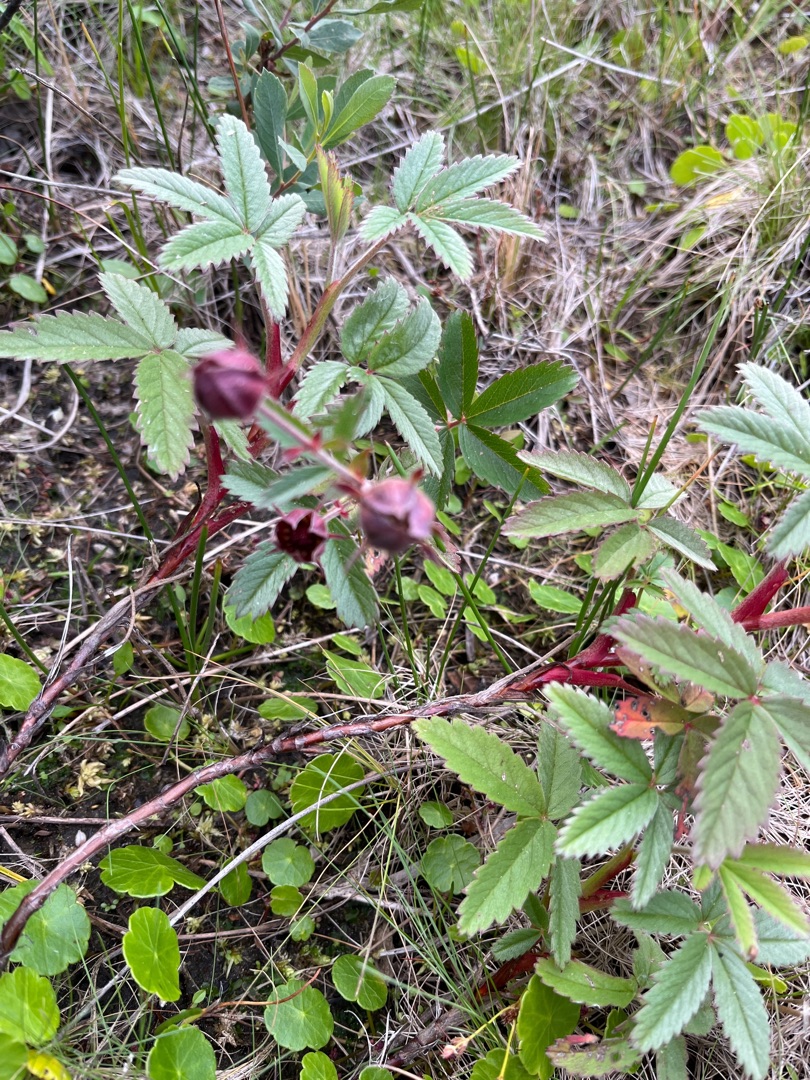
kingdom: Plantae
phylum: Tracheophyta
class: Magnoliopsida
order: Rosales
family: Rosaceae
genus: Comarum
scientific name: Comarum palustre
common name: Kragefod
